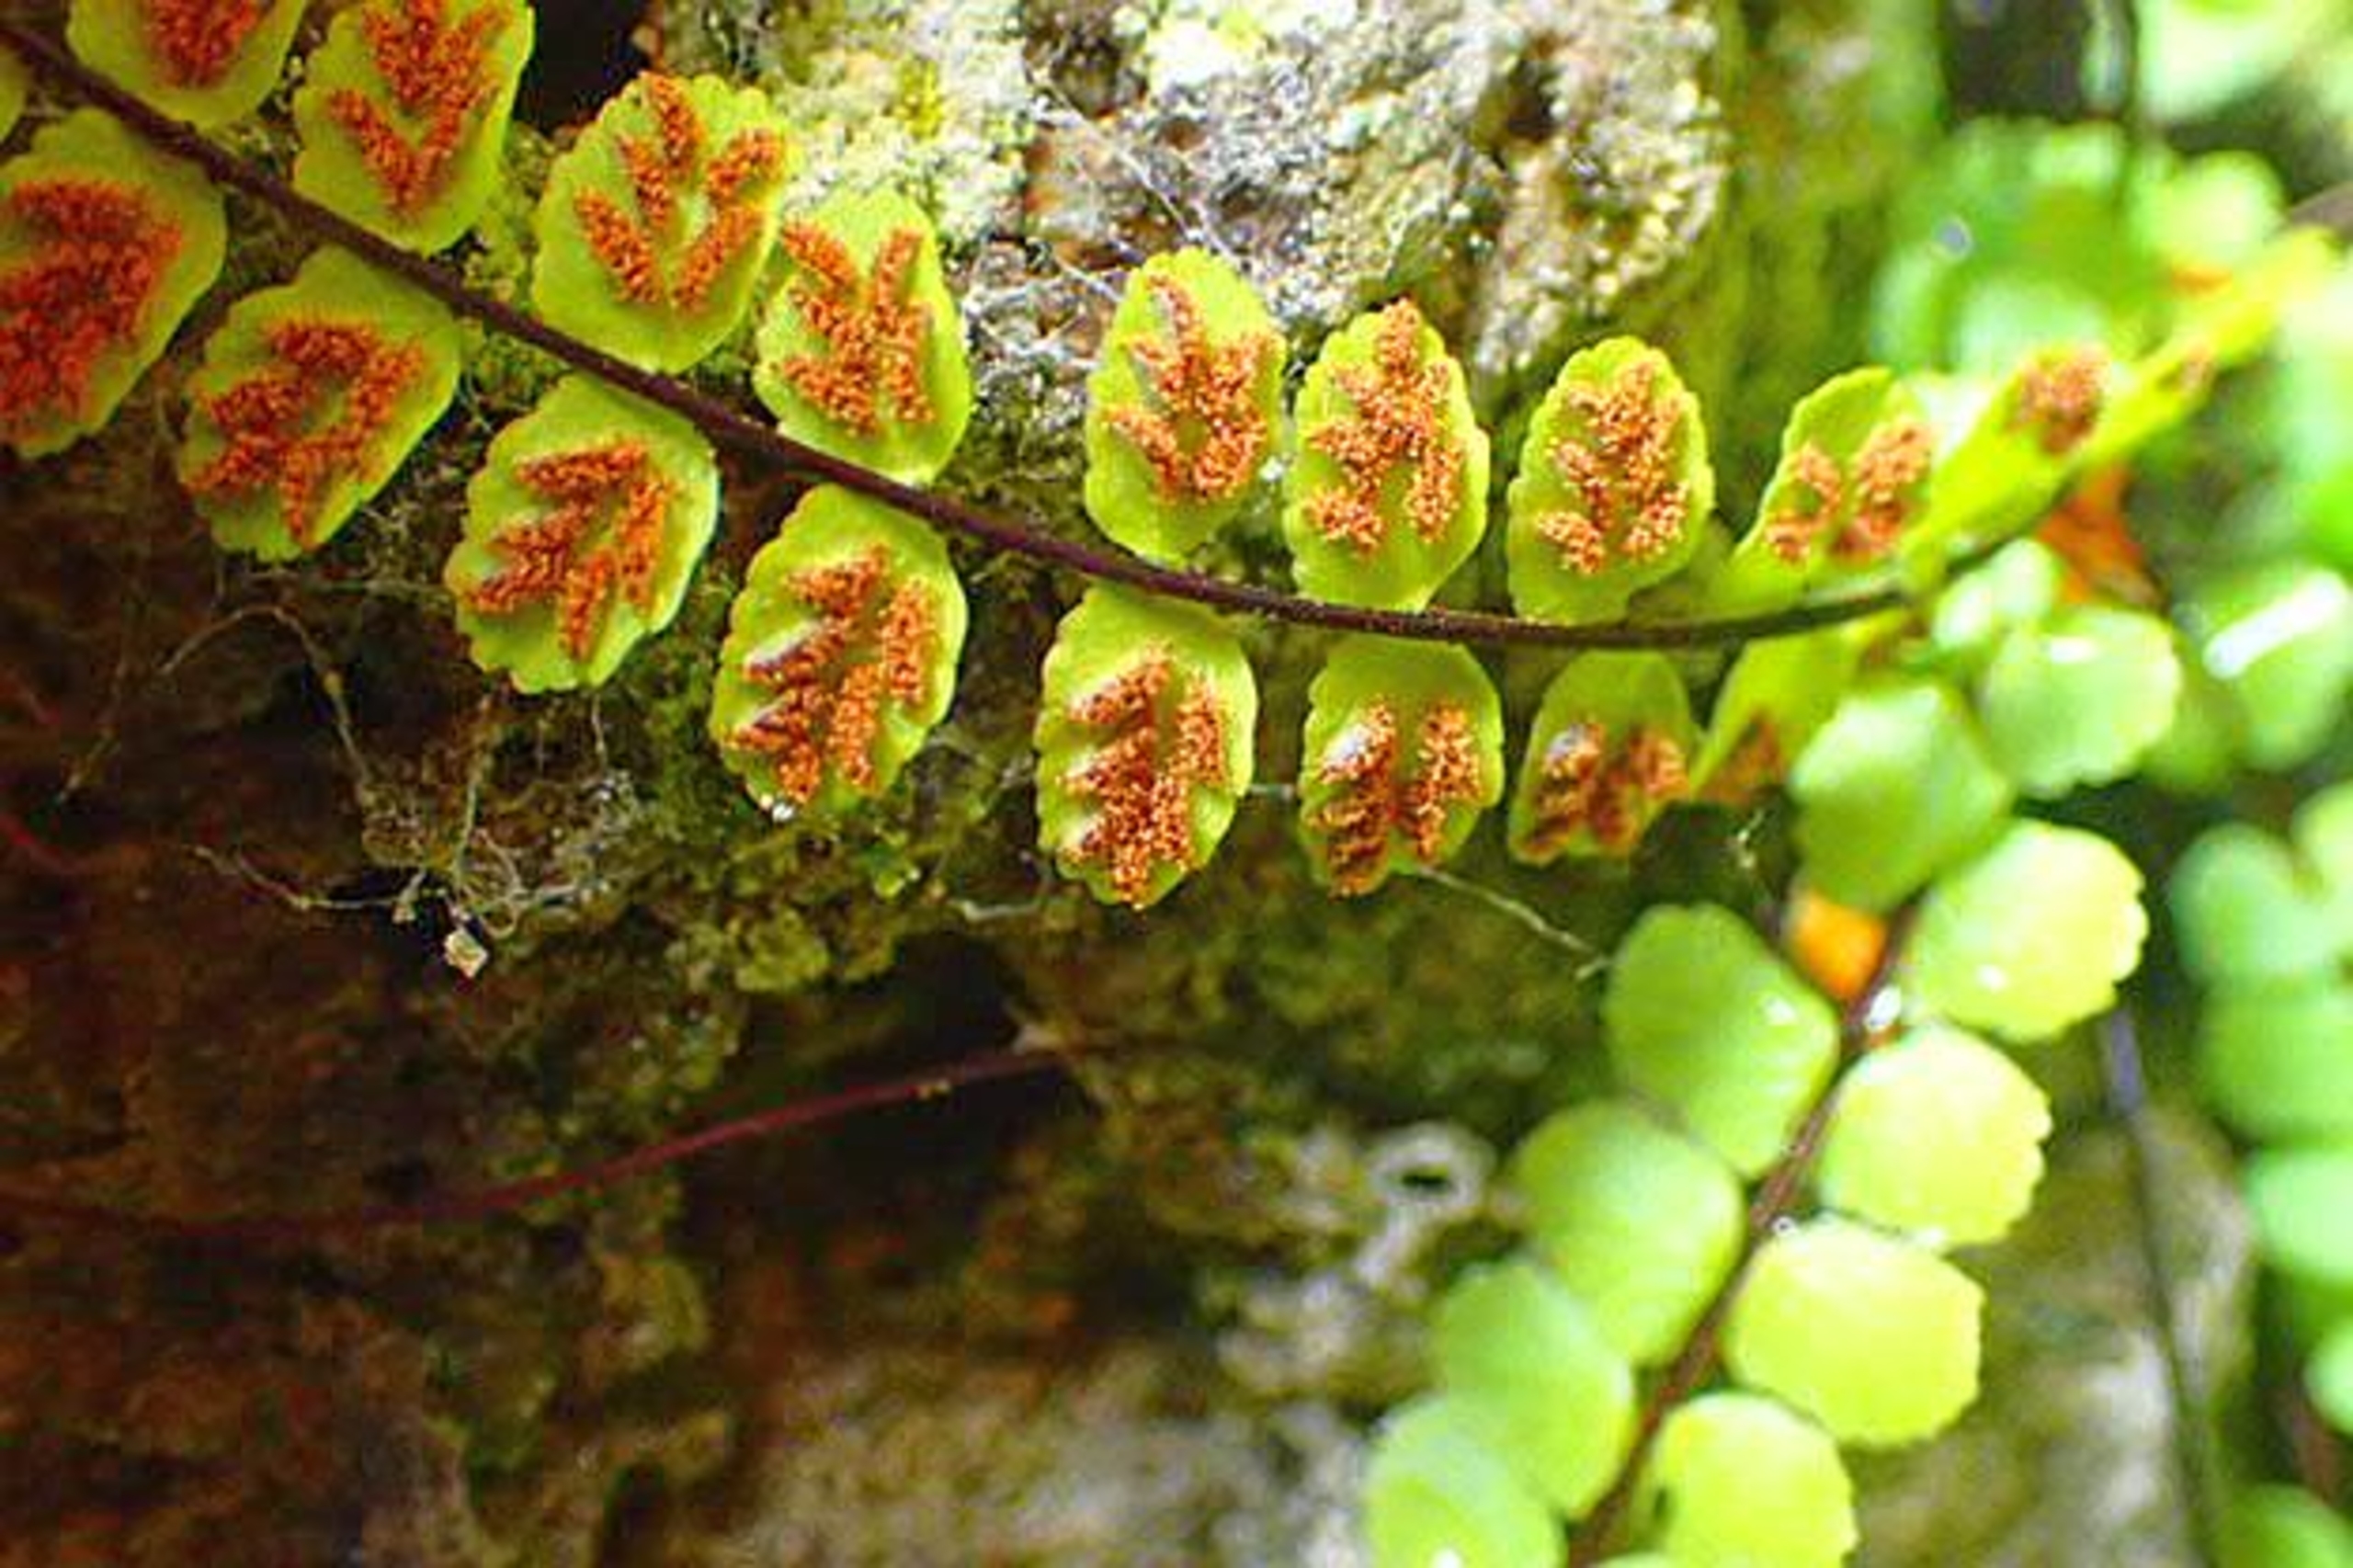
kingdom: Plantae
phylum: Tracheophyta
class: Polypodiopsida
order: Polypodiales
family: Aspleniaceae
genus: Asplenium
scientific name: Asplenium trichomanes
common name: Rundfinnet radeløv
